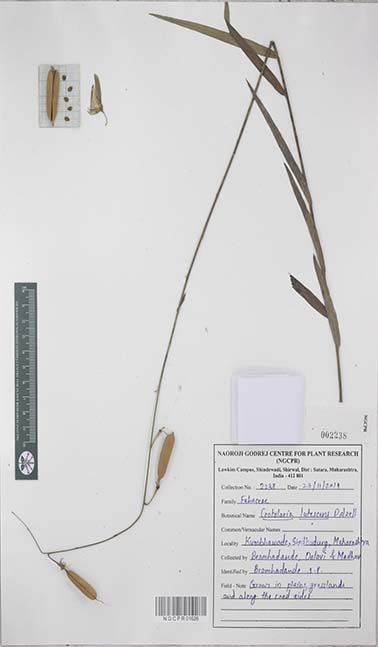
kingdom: Plantae
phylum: Tracheophyta
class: Magnoliopsida
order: Fabales
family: Fabaceae
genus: Crotalaria
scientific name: Crotalaria lutescens
